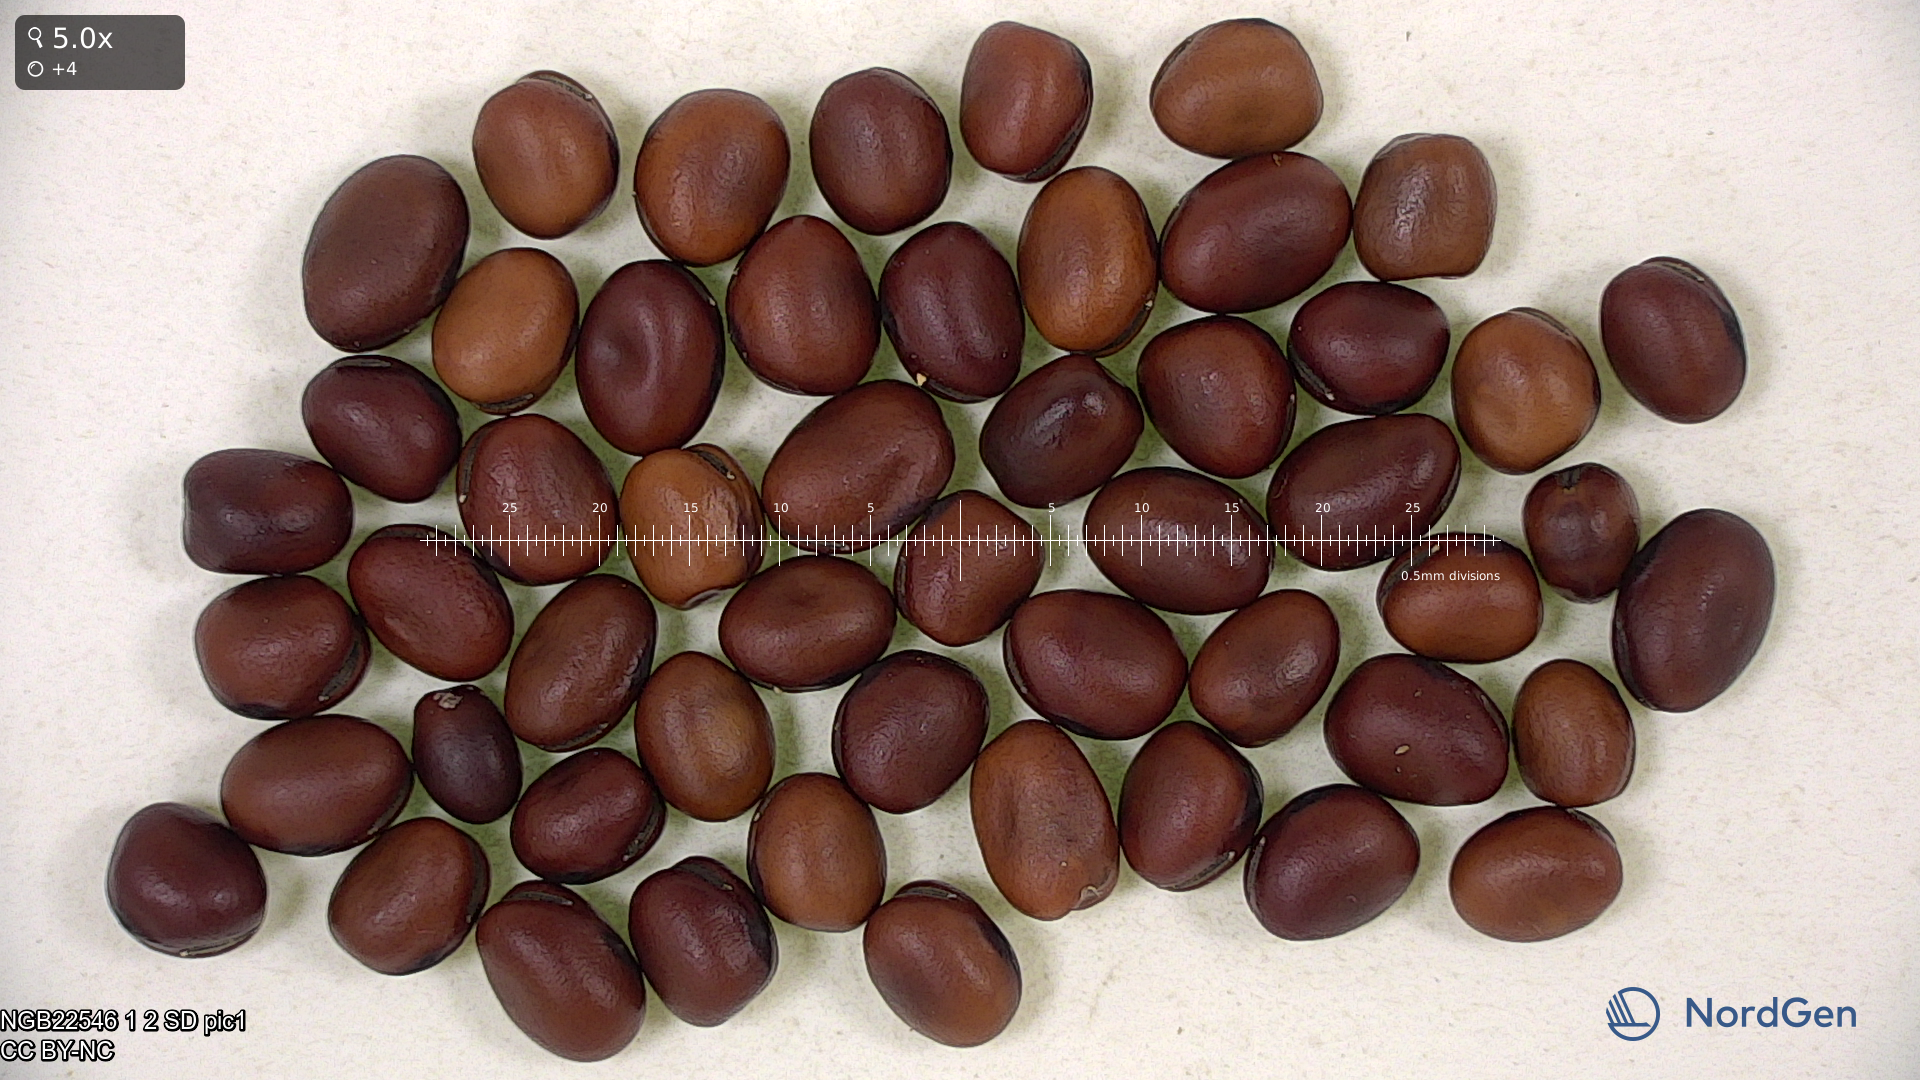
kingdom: Plantae
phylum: Tracheophyta
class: Magnoliopsida
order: Fabales
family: Fabaceae
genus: Vicia
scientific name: Vicia faba
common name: Broad bean
